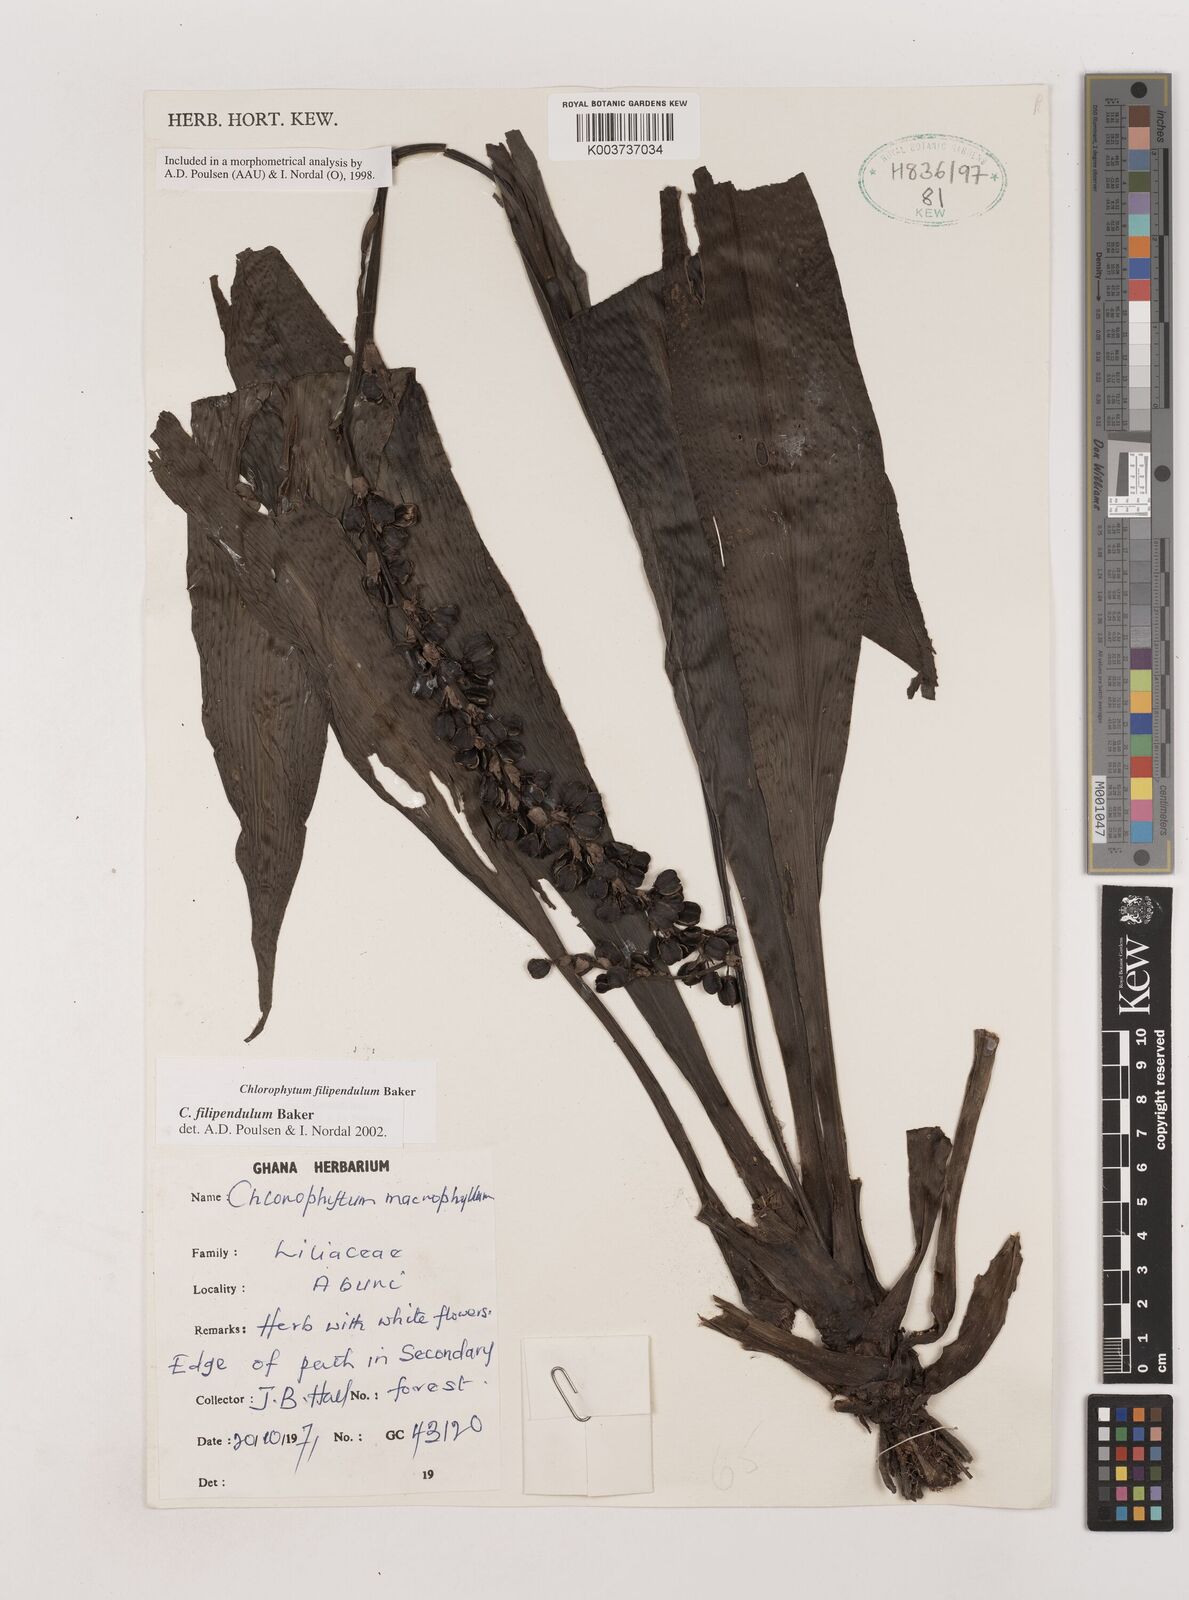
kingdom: Plantae
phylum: Tracheophyta
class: Liliopsida
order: Asparagales
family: Asparagaceae
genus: Chlorophytum
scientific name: Chlorophytum heynei
